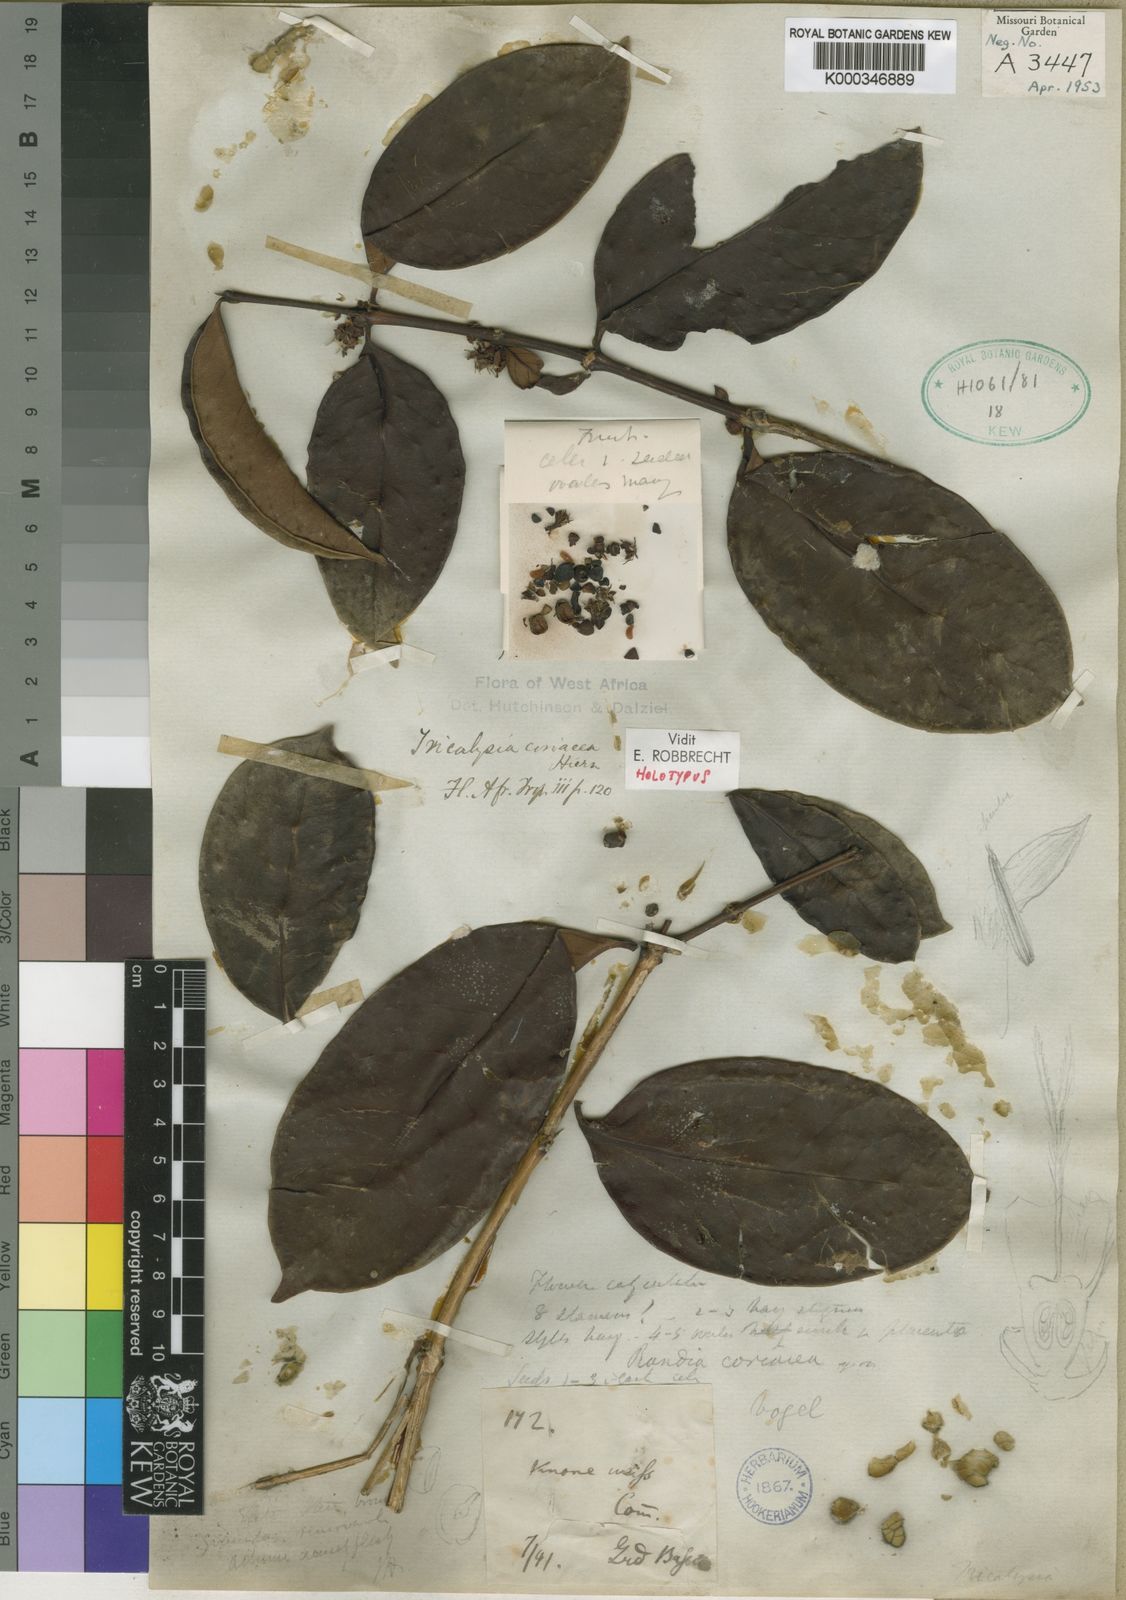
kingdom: Plantae
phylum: Tracheophyta
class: Magnoliopsida
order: Gentianales
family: Rubiaceae
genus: Tricalysia
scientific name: Tricalysia coriacea
